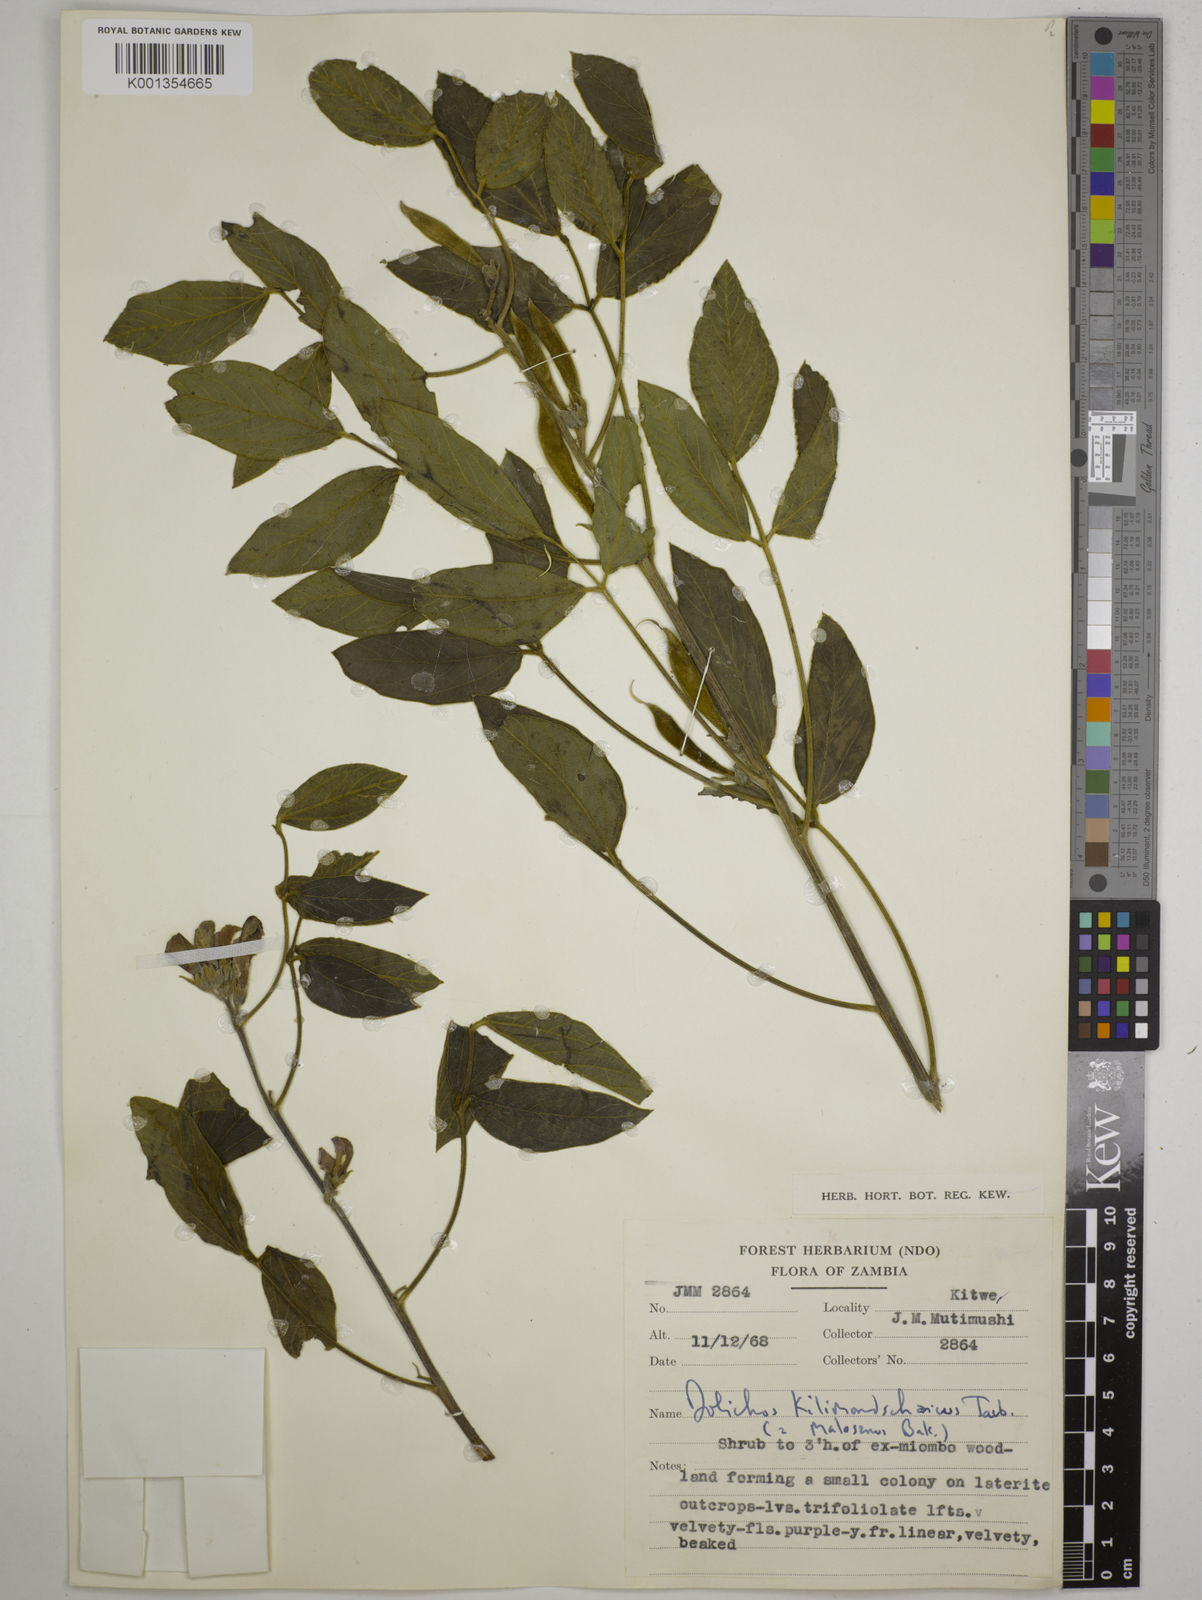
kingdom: Plantae
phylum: Tracheophyta
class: Magnoliopsida
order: Fabales
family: Fabaceae
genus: Dolichos
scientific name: Dolichos kilimandscharicus
